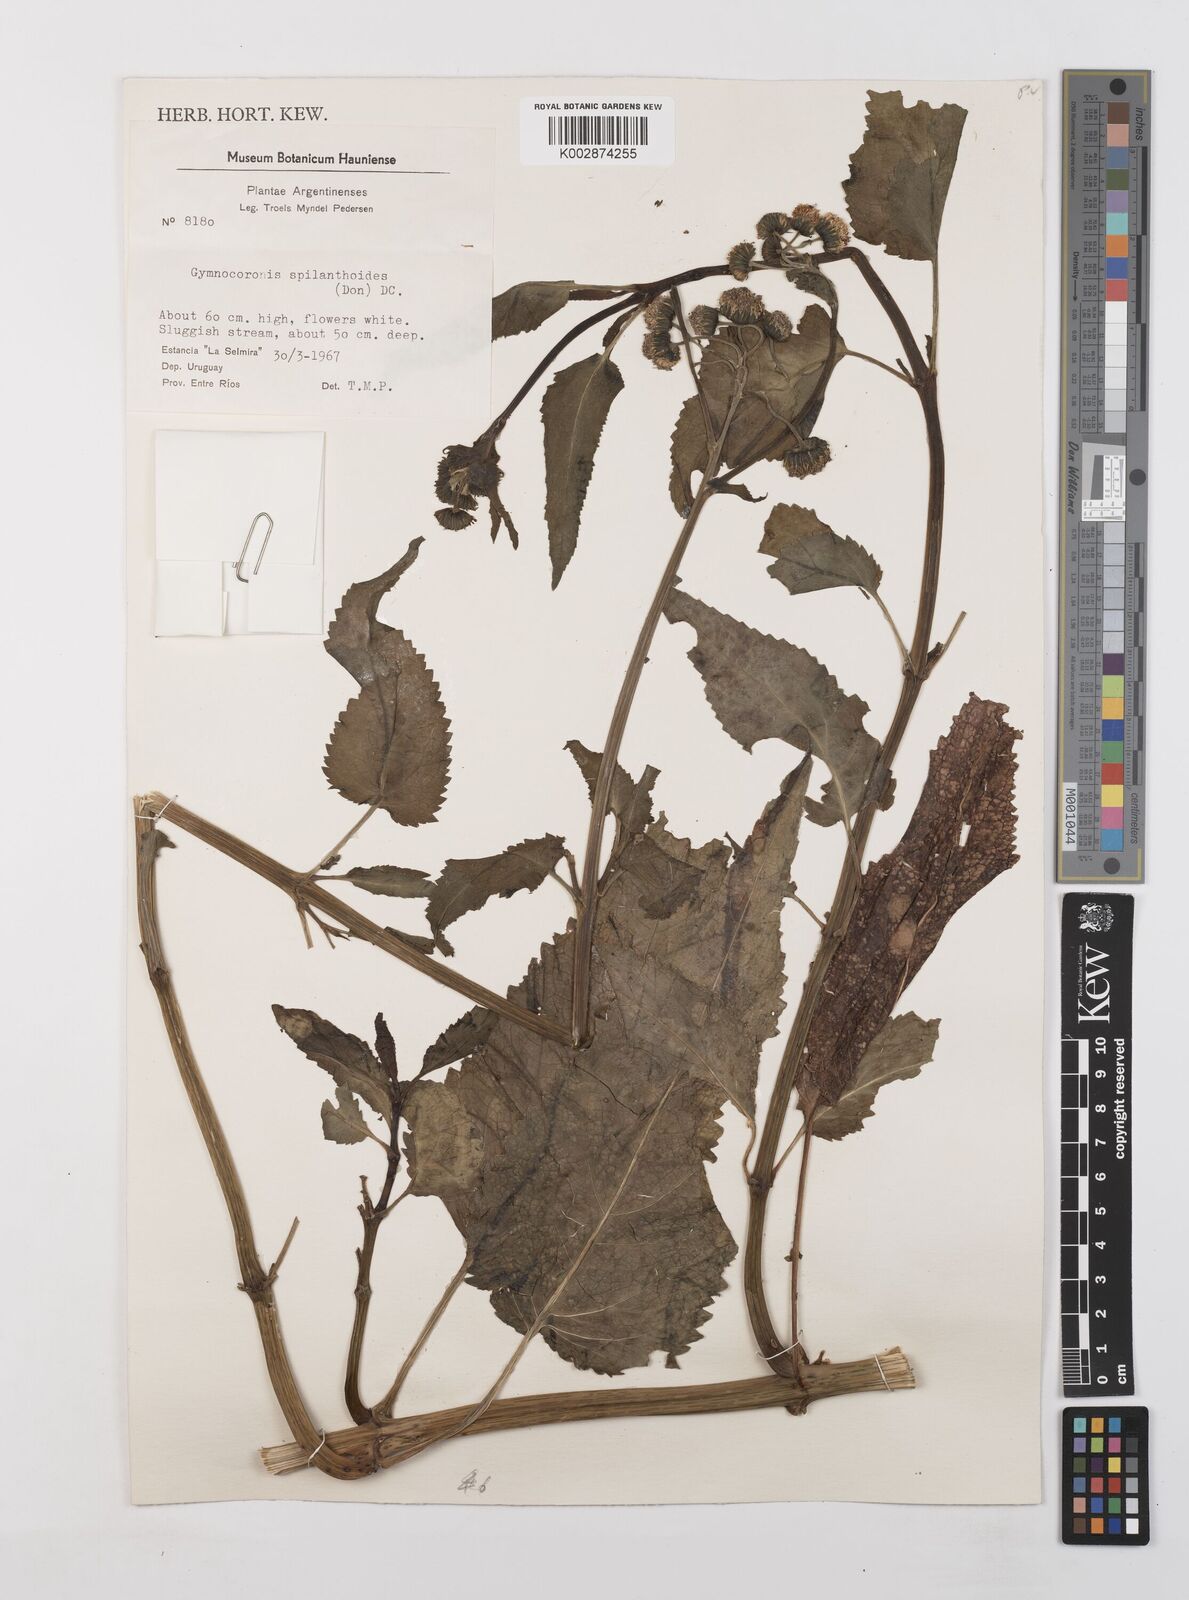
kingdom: Plantae
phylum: Tracheophyta
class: Magnoliopsida
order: Asterales
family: Asteraceae
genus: Gymnocoronis
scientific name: Gymnocoronis spilanthoides
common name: Senegal teaplant
